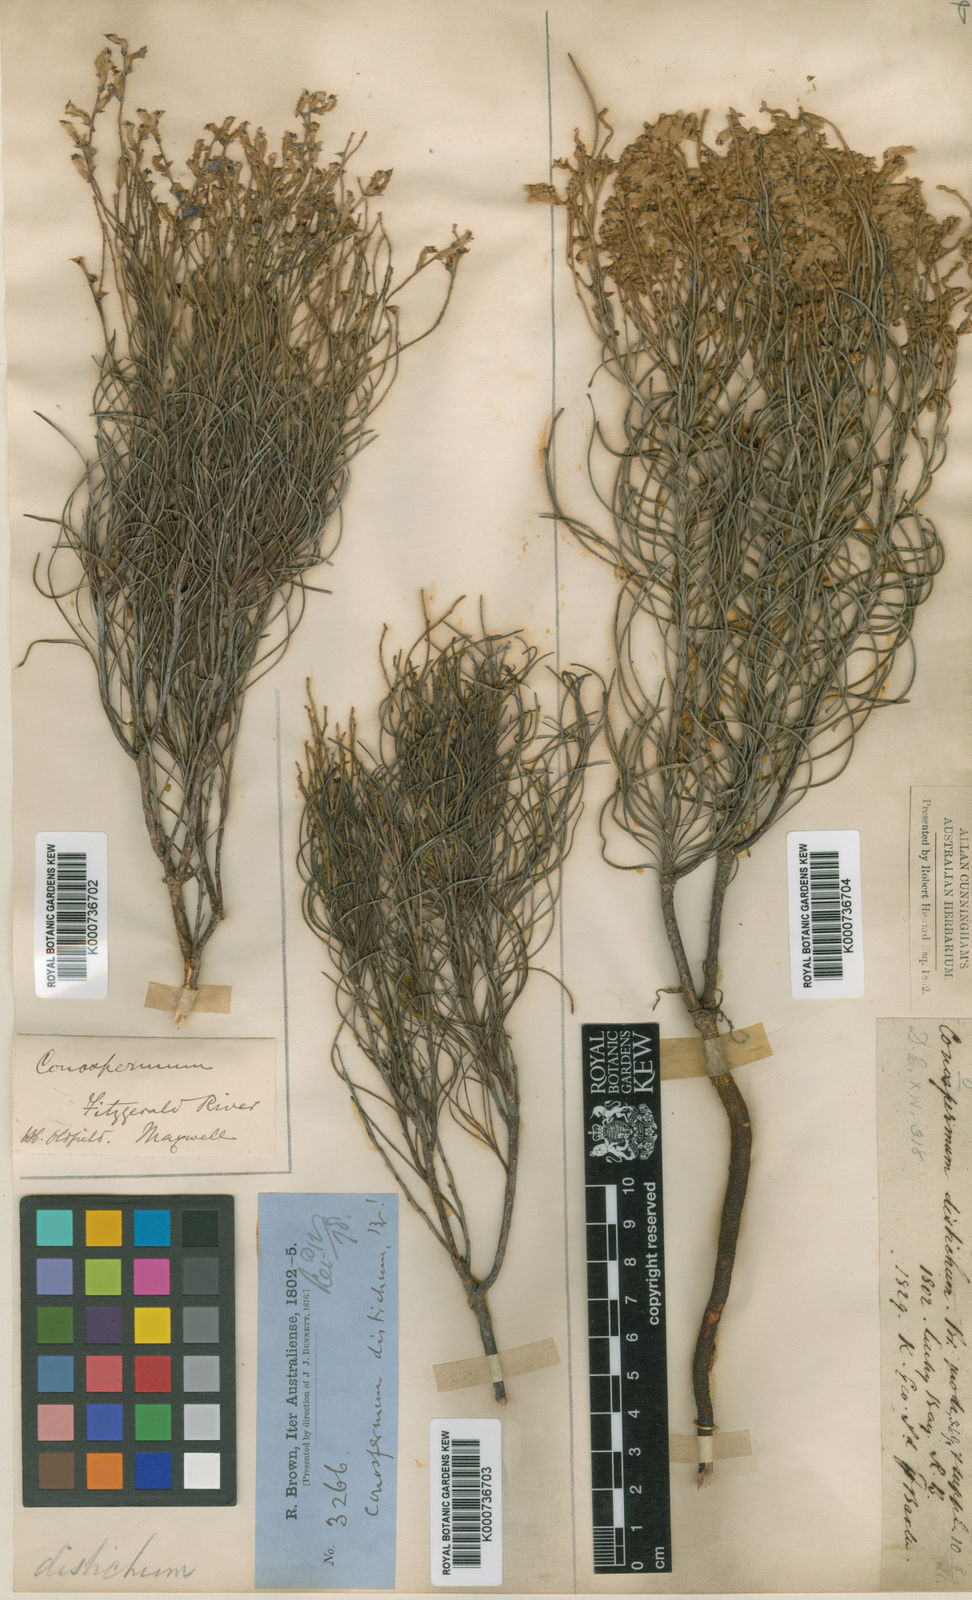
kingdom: Plantae
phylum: Tracheophyta
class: Magnoliopsida
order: Proteales
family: Proteaceae
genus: Conospermum
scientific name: Conospermum distichum
